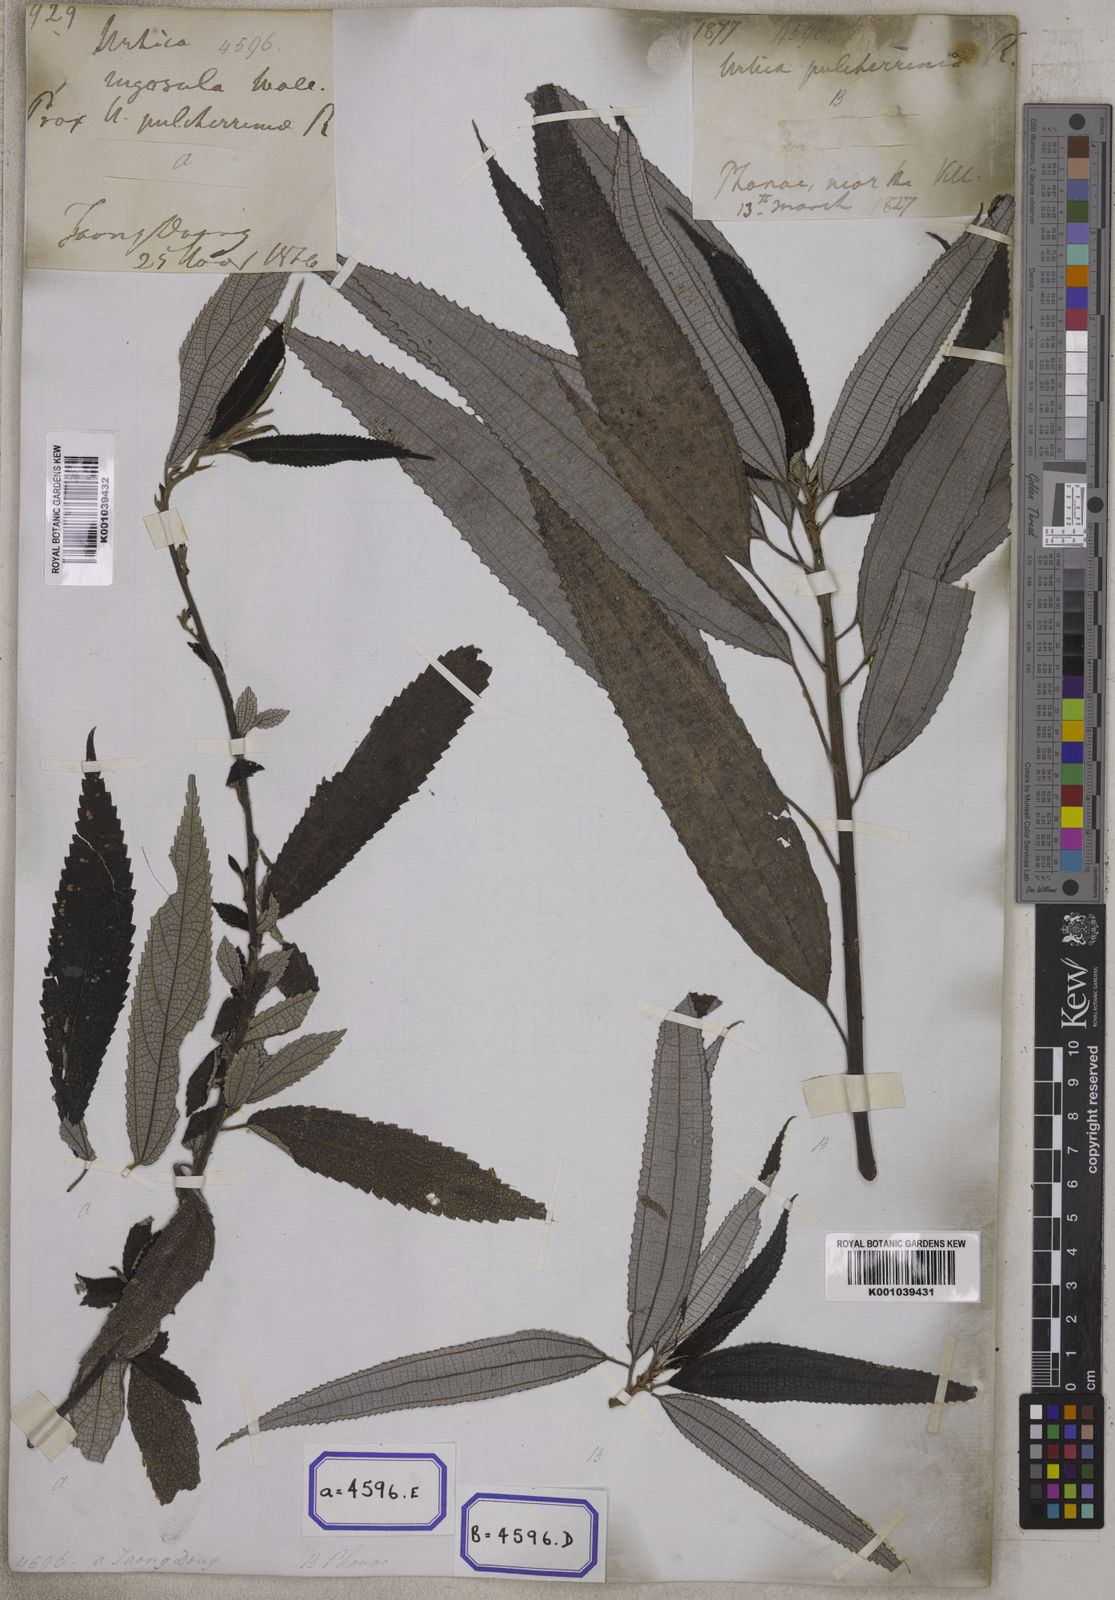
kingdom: Plantae
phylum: Tracheophyta
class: Magnoliopsida
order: Rosales
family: Urticaceae
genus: Boehmeria
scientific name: Boehmeria virgata
